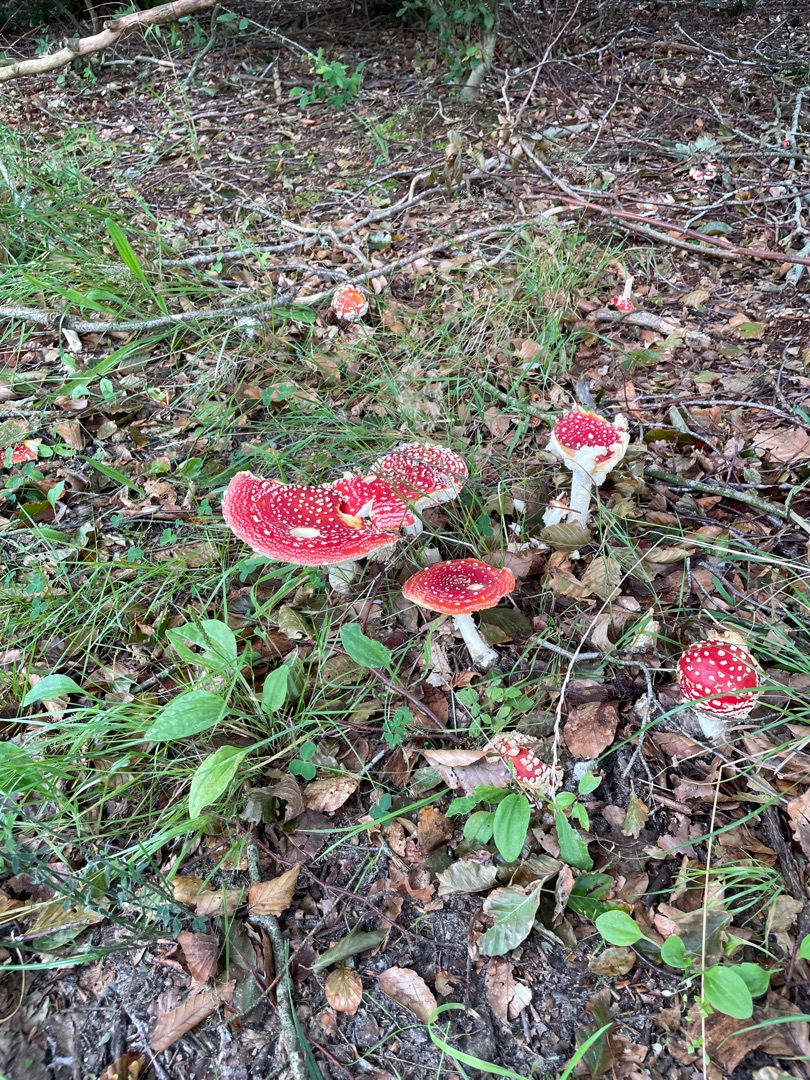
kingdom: Fungi
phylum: Basidiomycota
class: Agaricomycetes
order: Agaricales
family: Amanitaceae
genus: Amanita
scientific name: Amanita muscaria
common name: Rød fluesvamp
